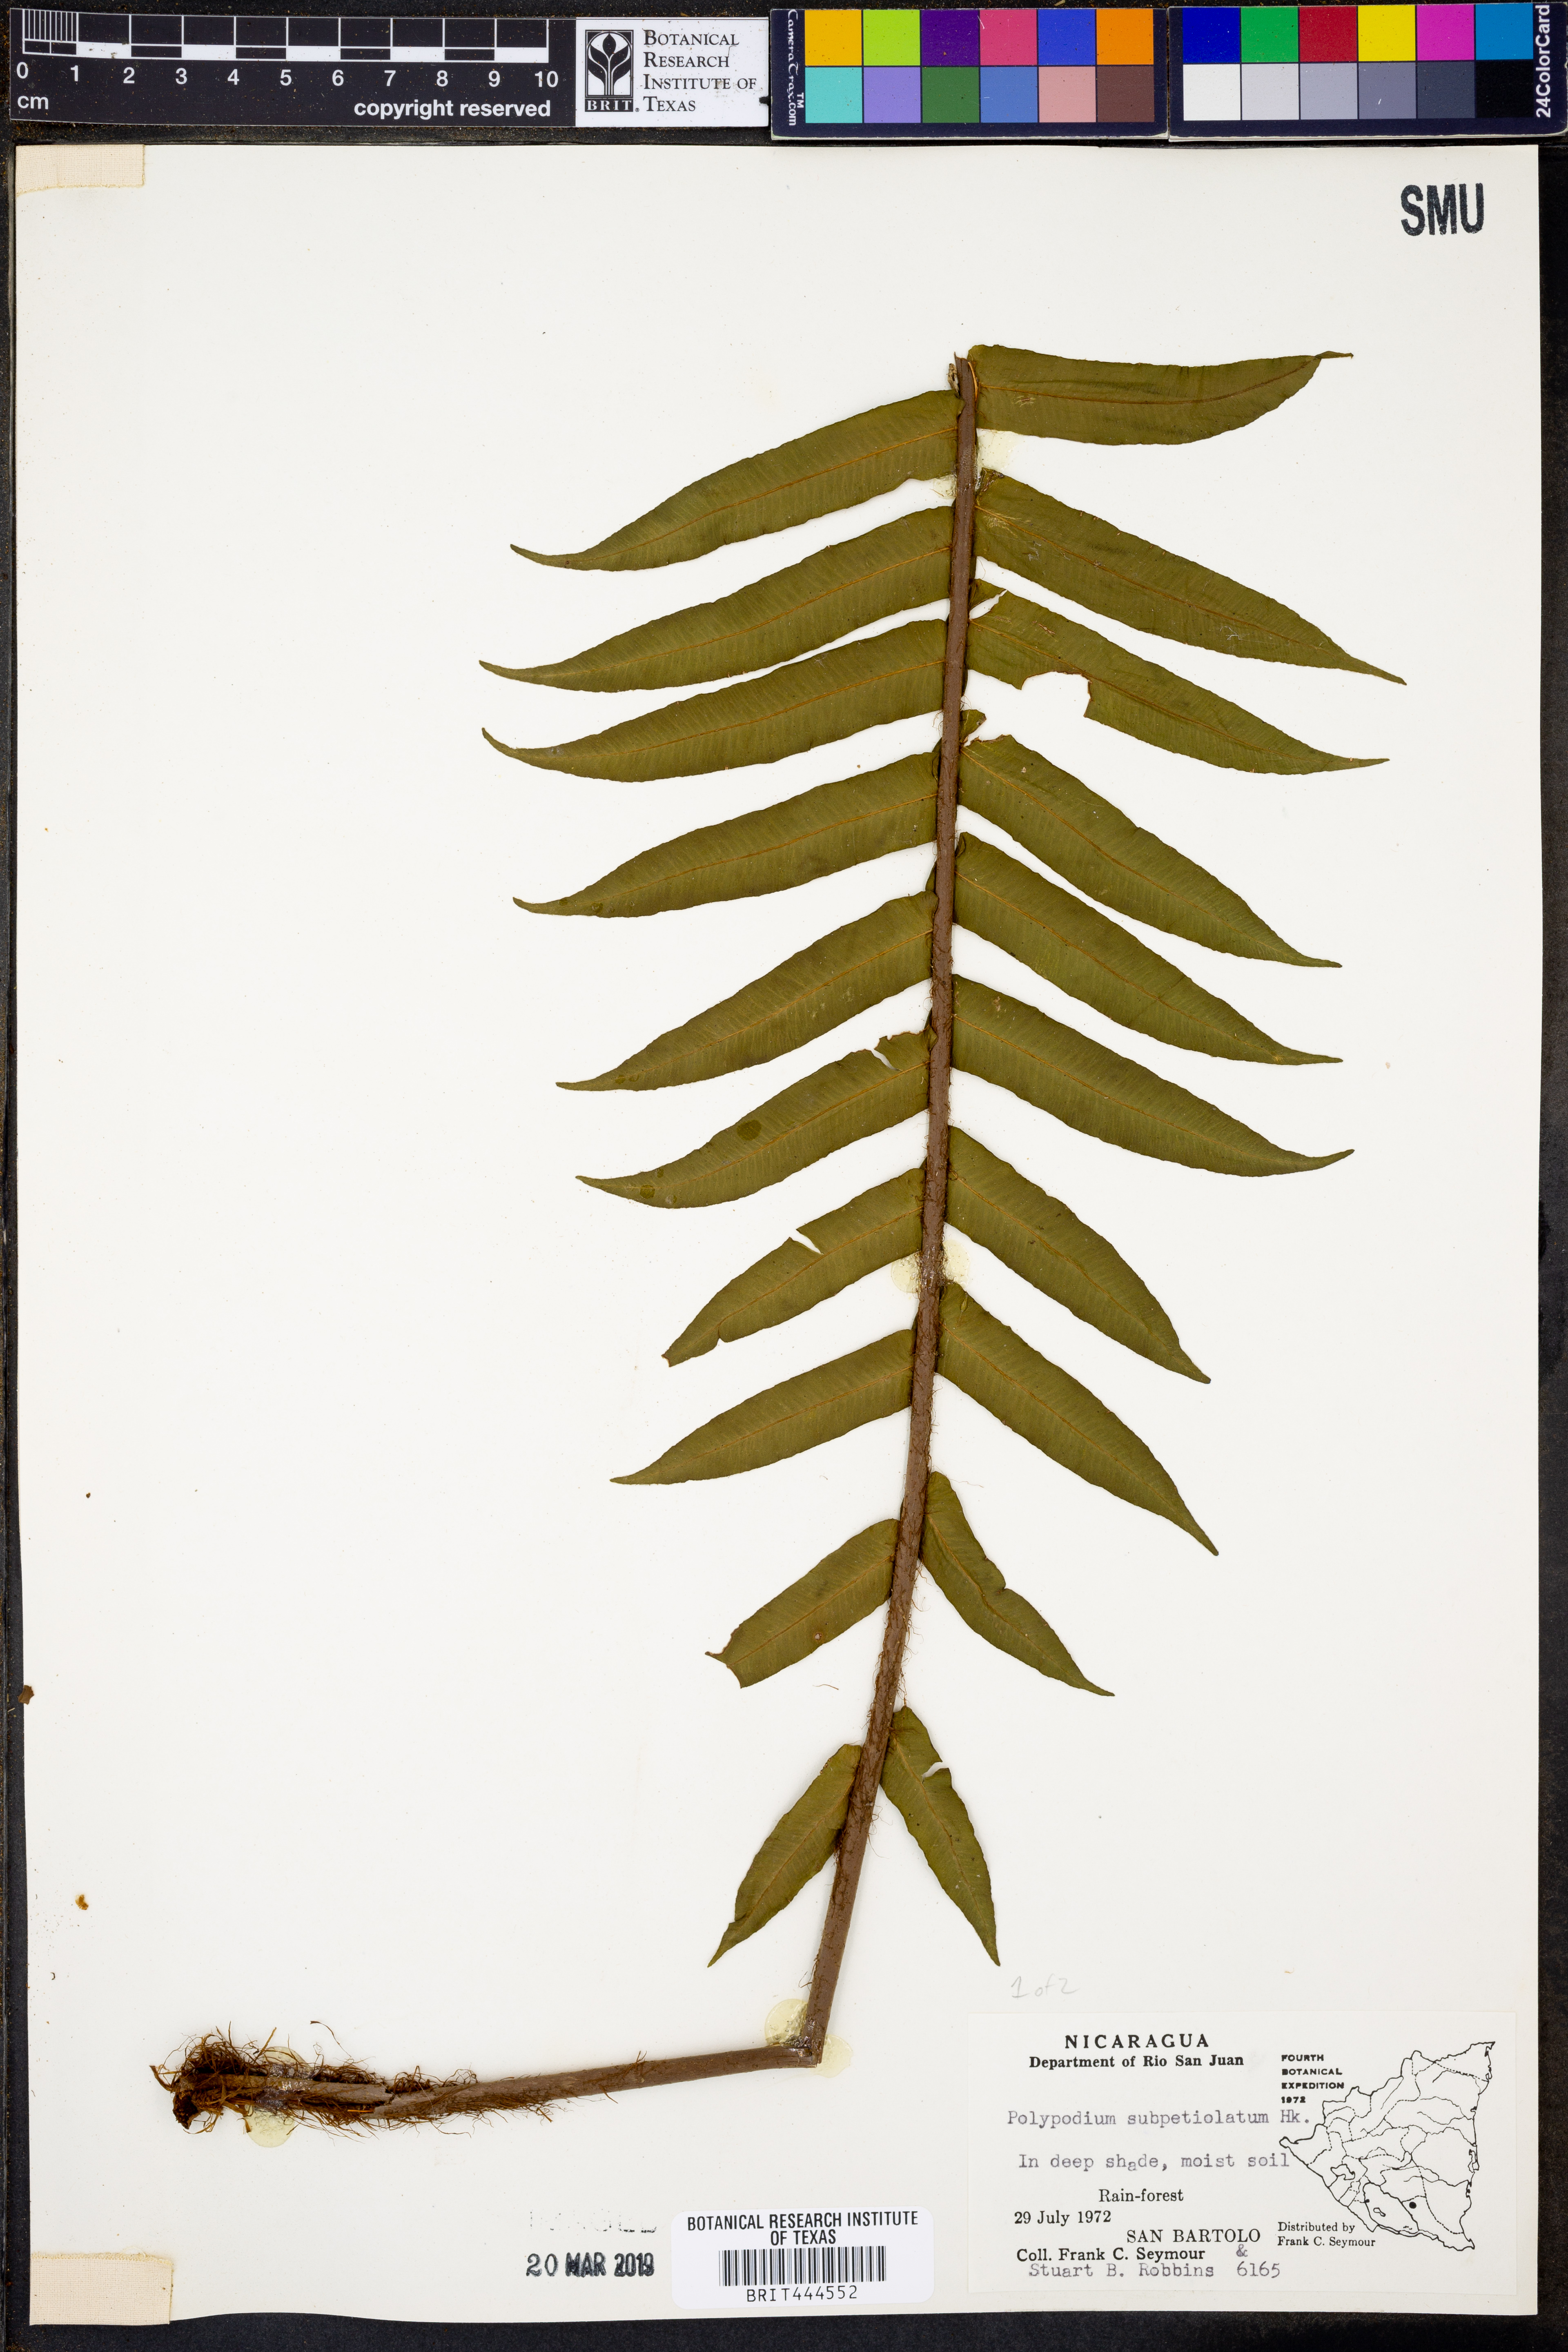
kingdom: Plantae
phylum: Tracheophyta
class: Polypodiopsida
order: Polypodiales
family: Polypodiaceae
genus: Polypodium
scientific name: Polypodium subpetiolatum
